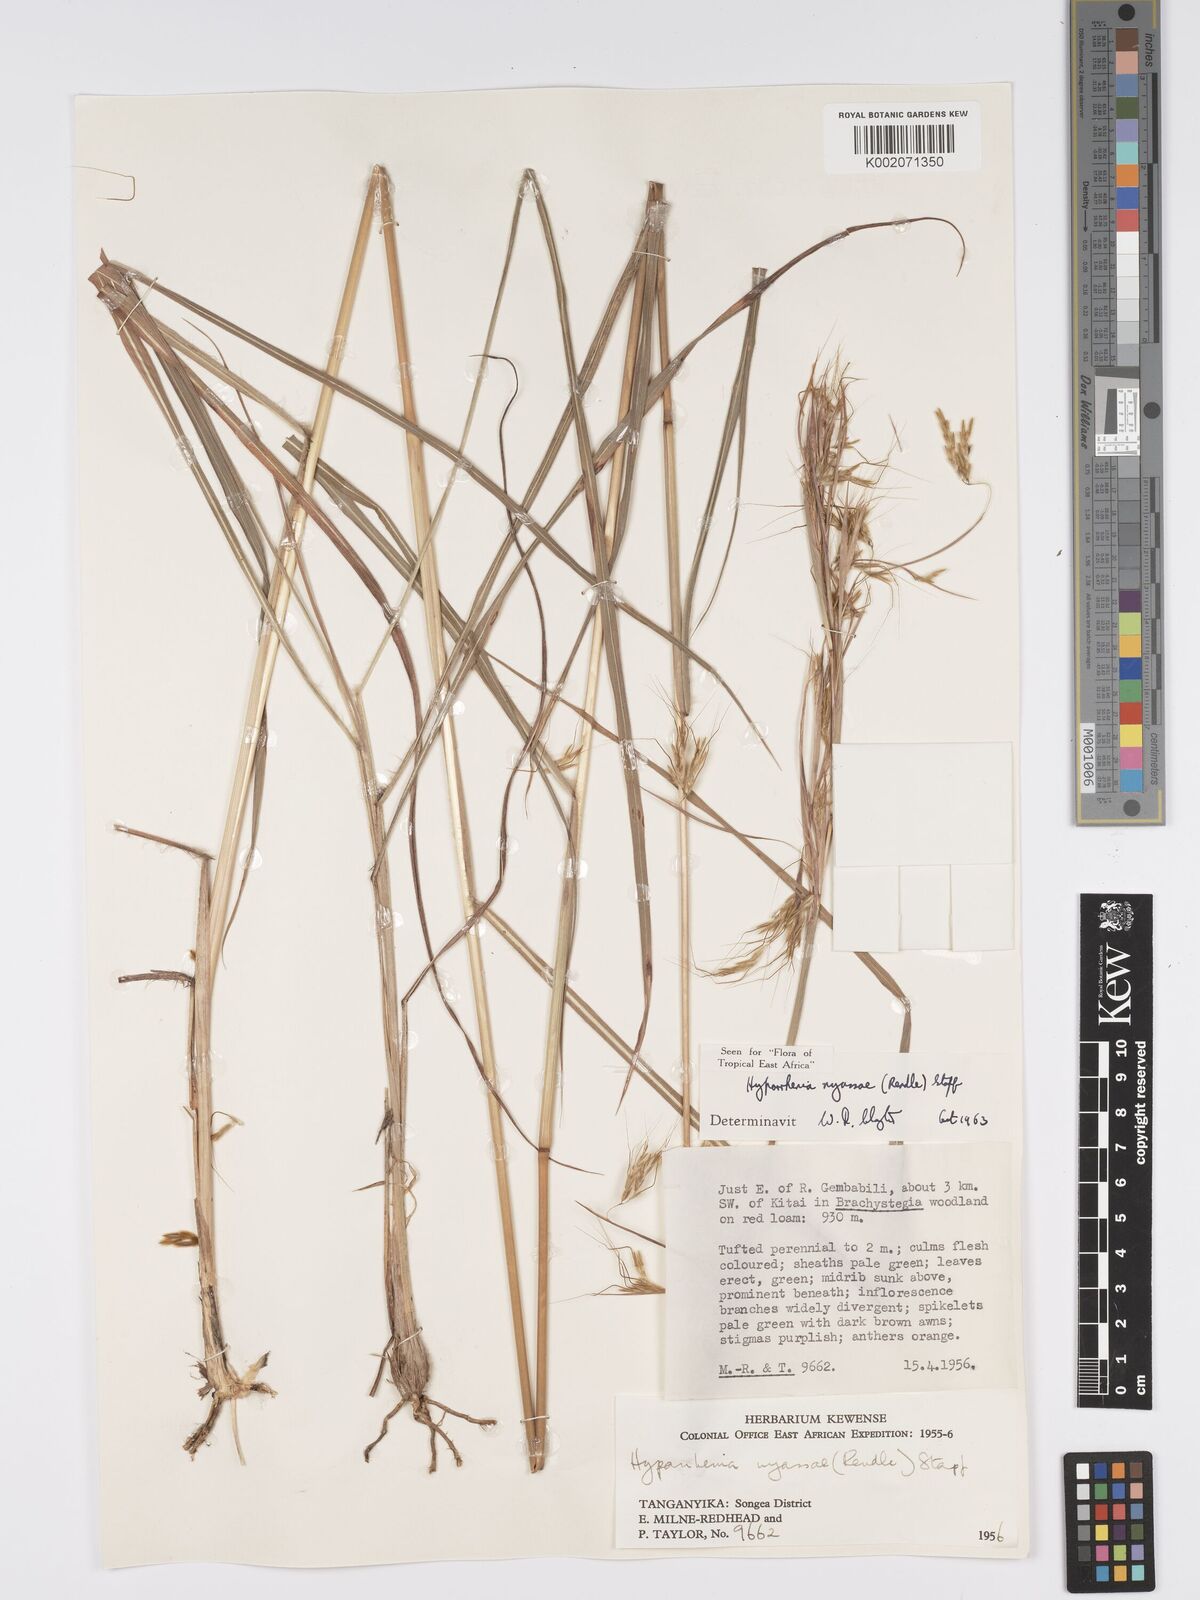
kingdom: Plantae
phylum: Tracheophyta
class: Liliopsida
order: Poales
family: Poaceae
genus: Hyparrhenia
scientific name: Hyparrhenia nyassae
